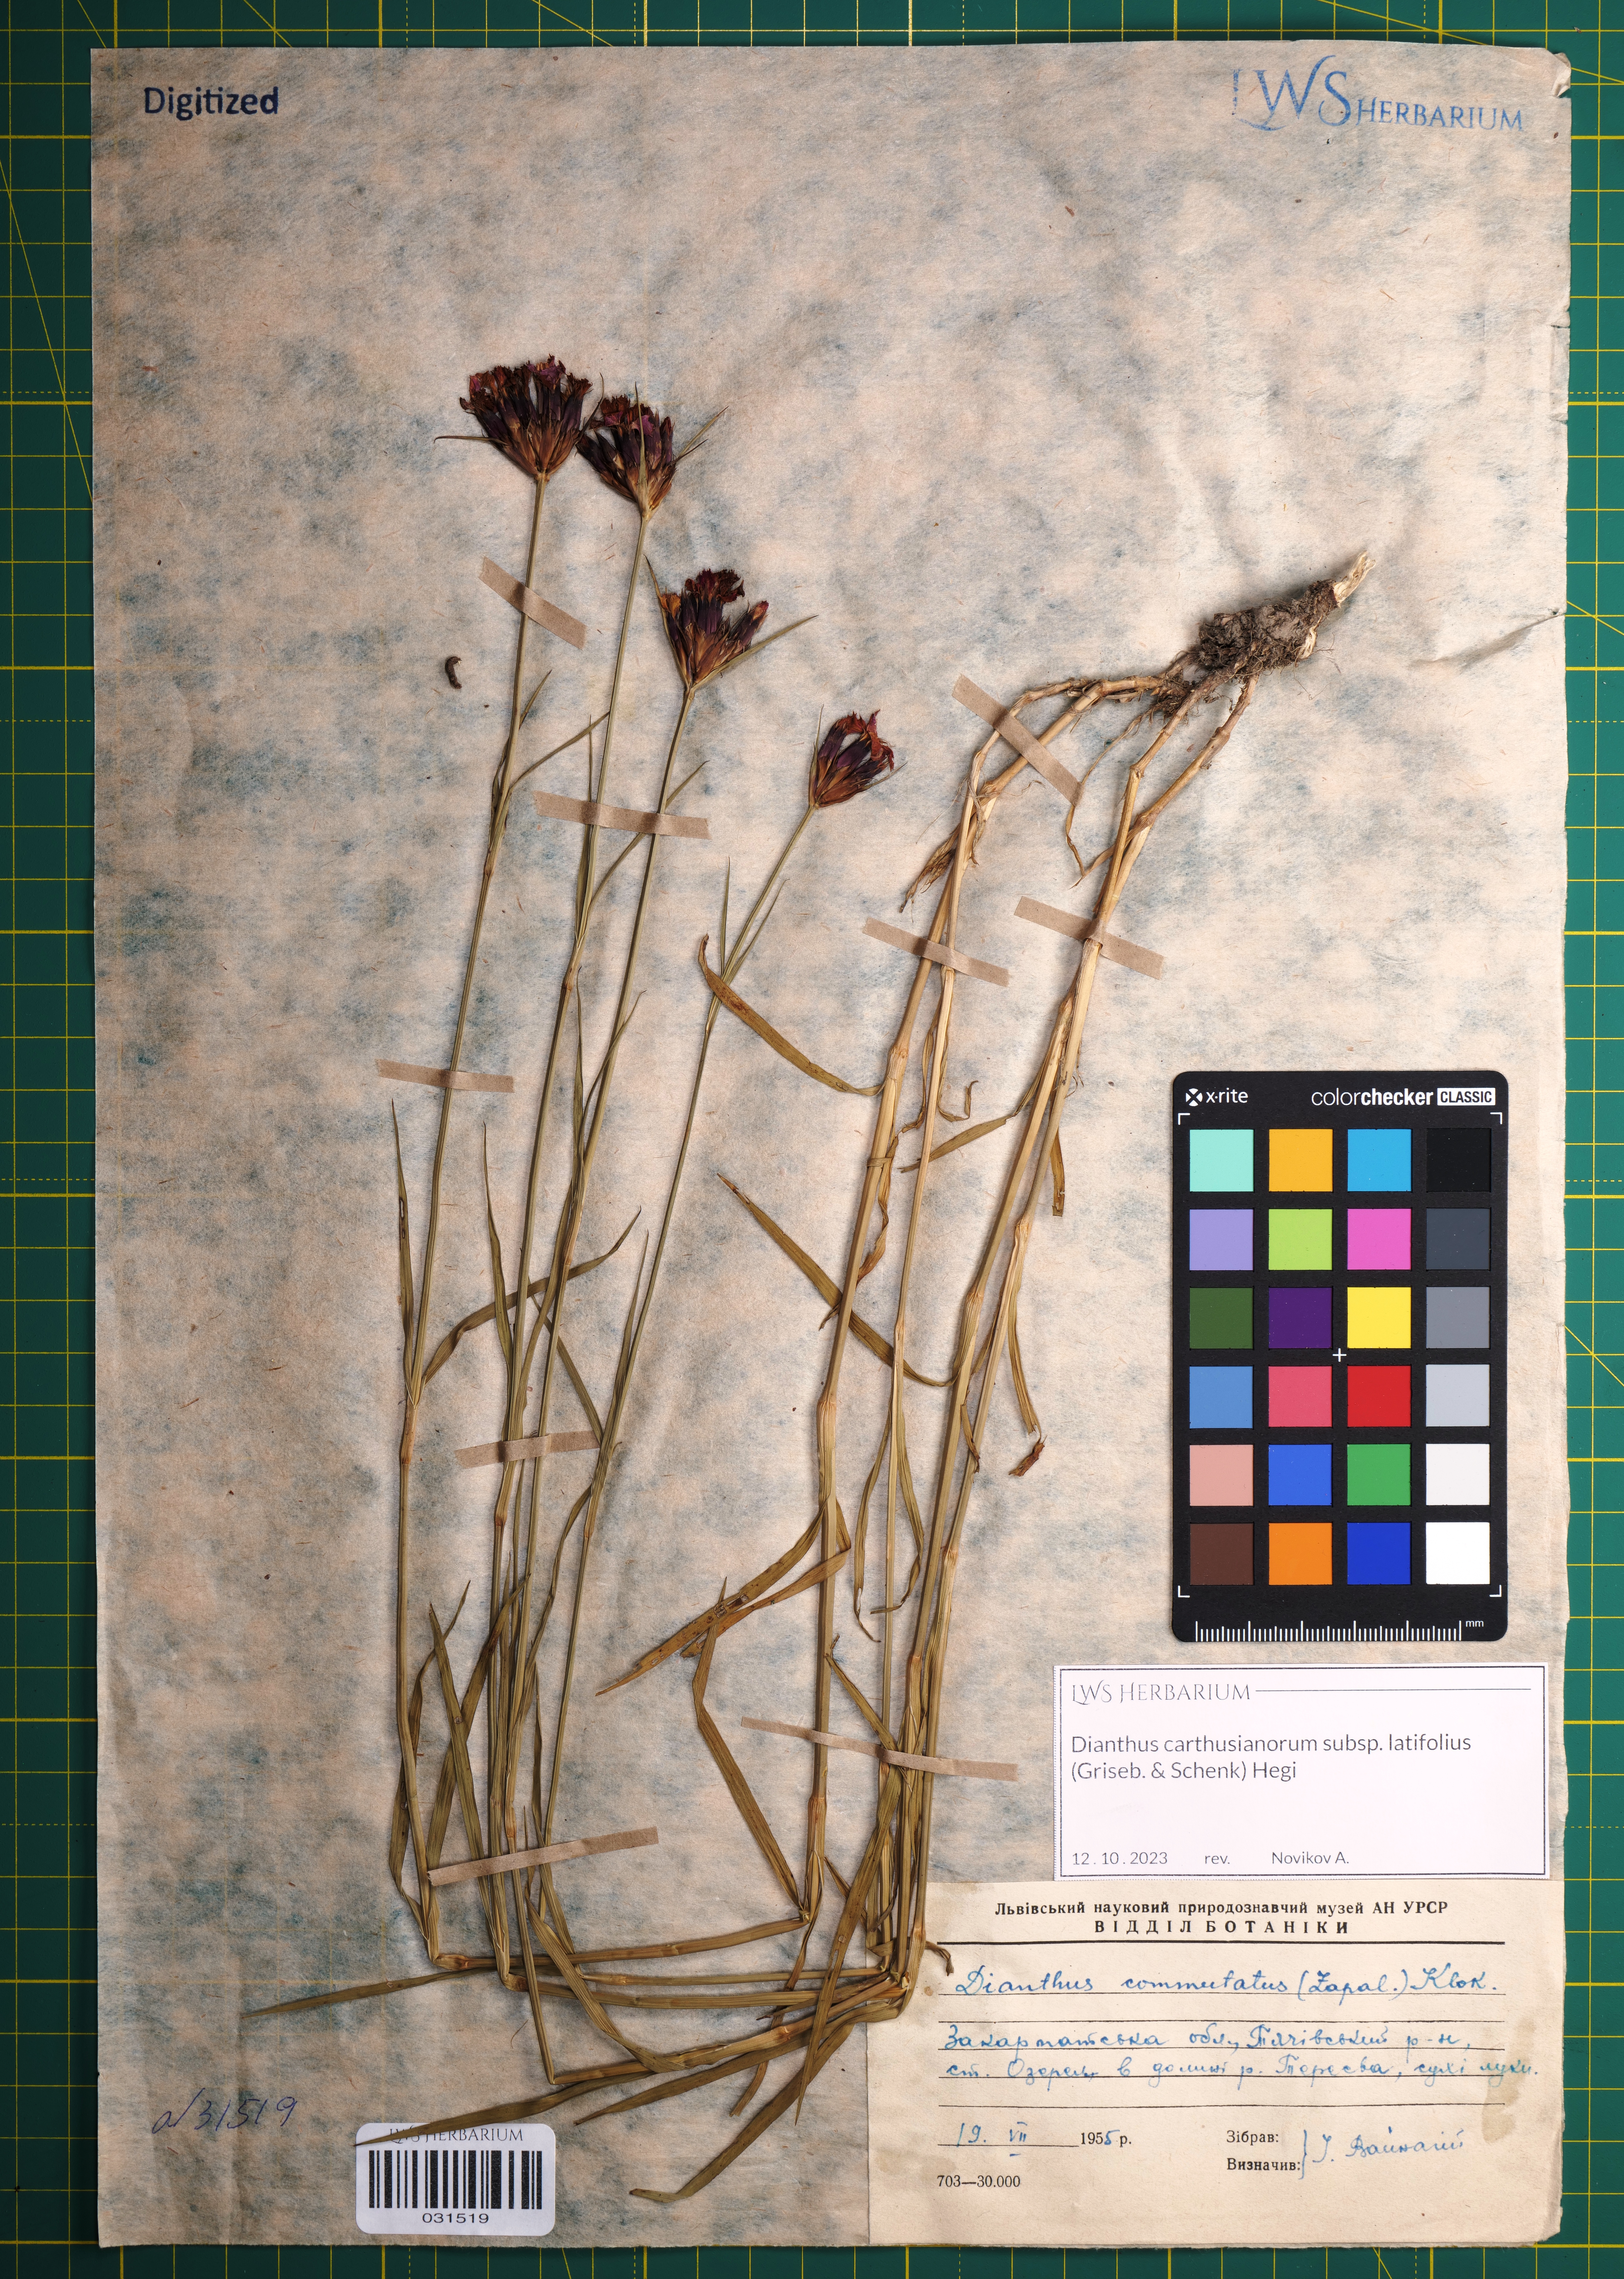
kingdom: Plantae
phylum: Tracheophyta
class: Magnoliopsida
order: Caryophyllales
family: Caryophyllaceae
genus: Dianthus
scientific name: Dianthus carthusianorum
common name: Carthusian pink
